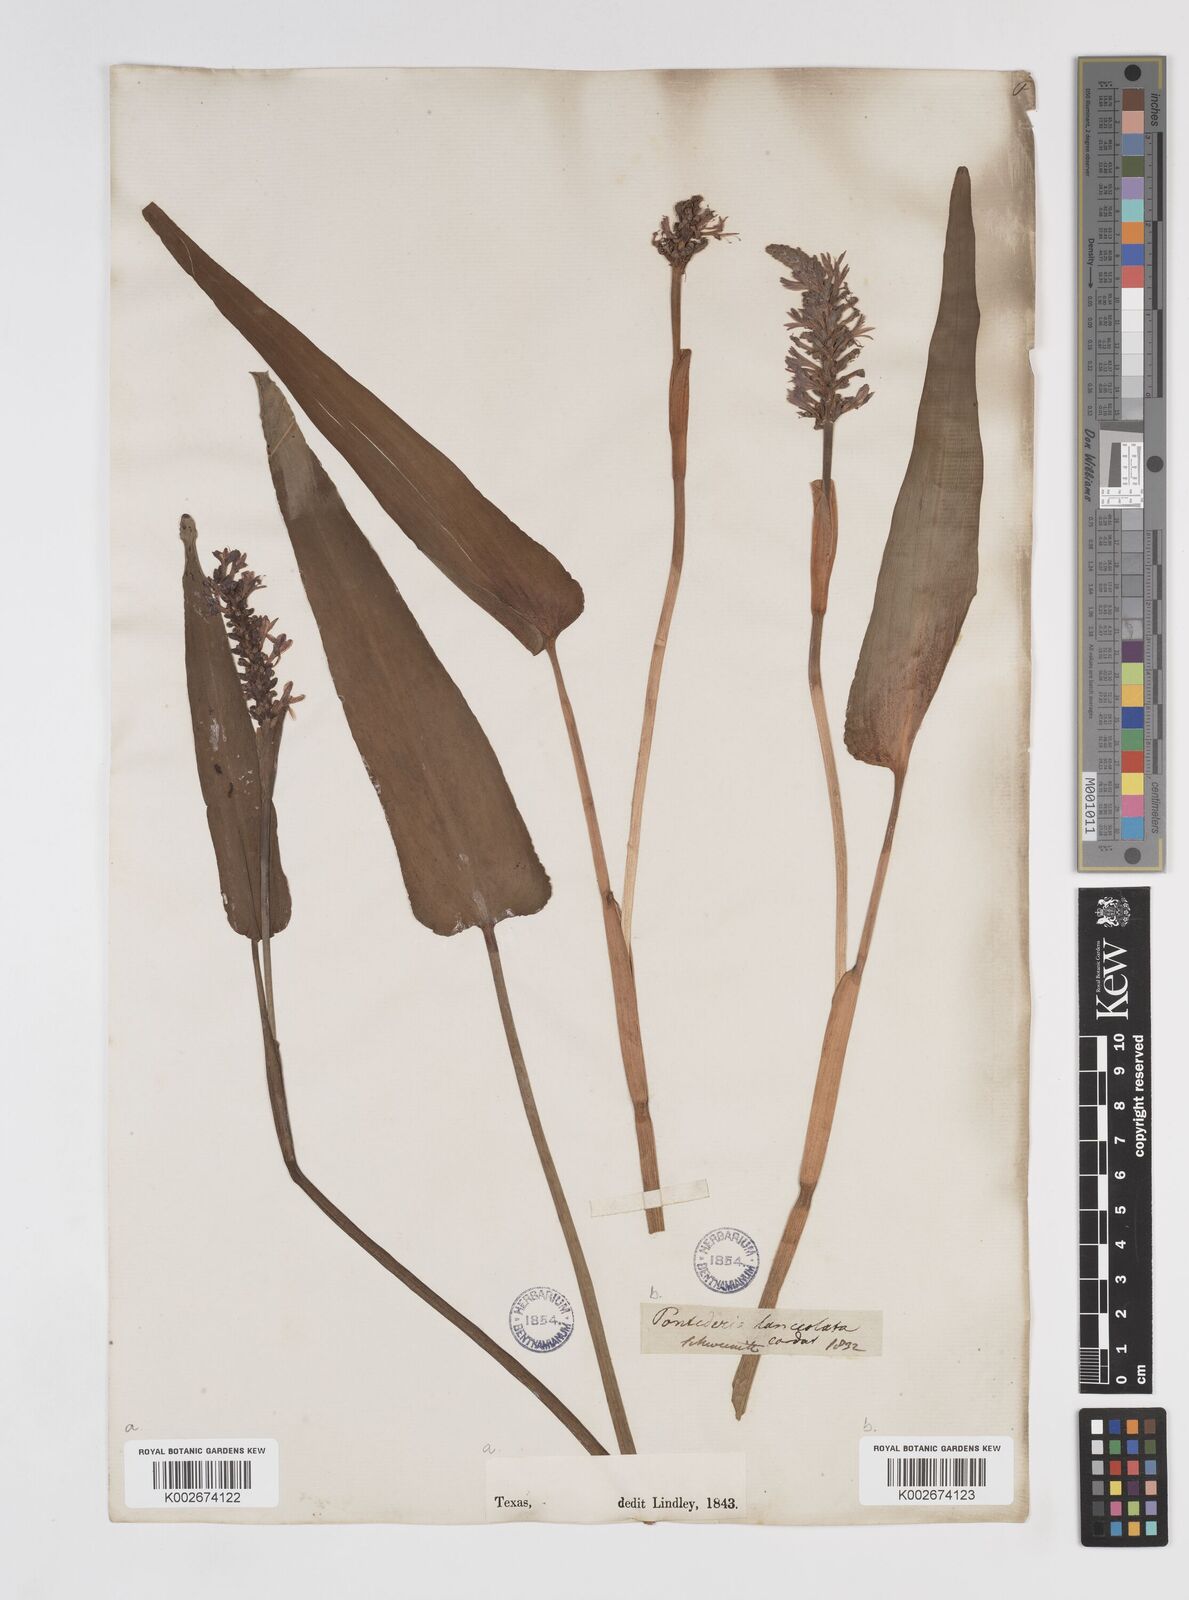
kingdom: Plantae
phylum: Tracheophyta
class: Liliopsida
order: Commelinales
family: Pontederiaceae
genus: Pontederia
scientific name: Pontederia cordata
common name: Pickerelweed
